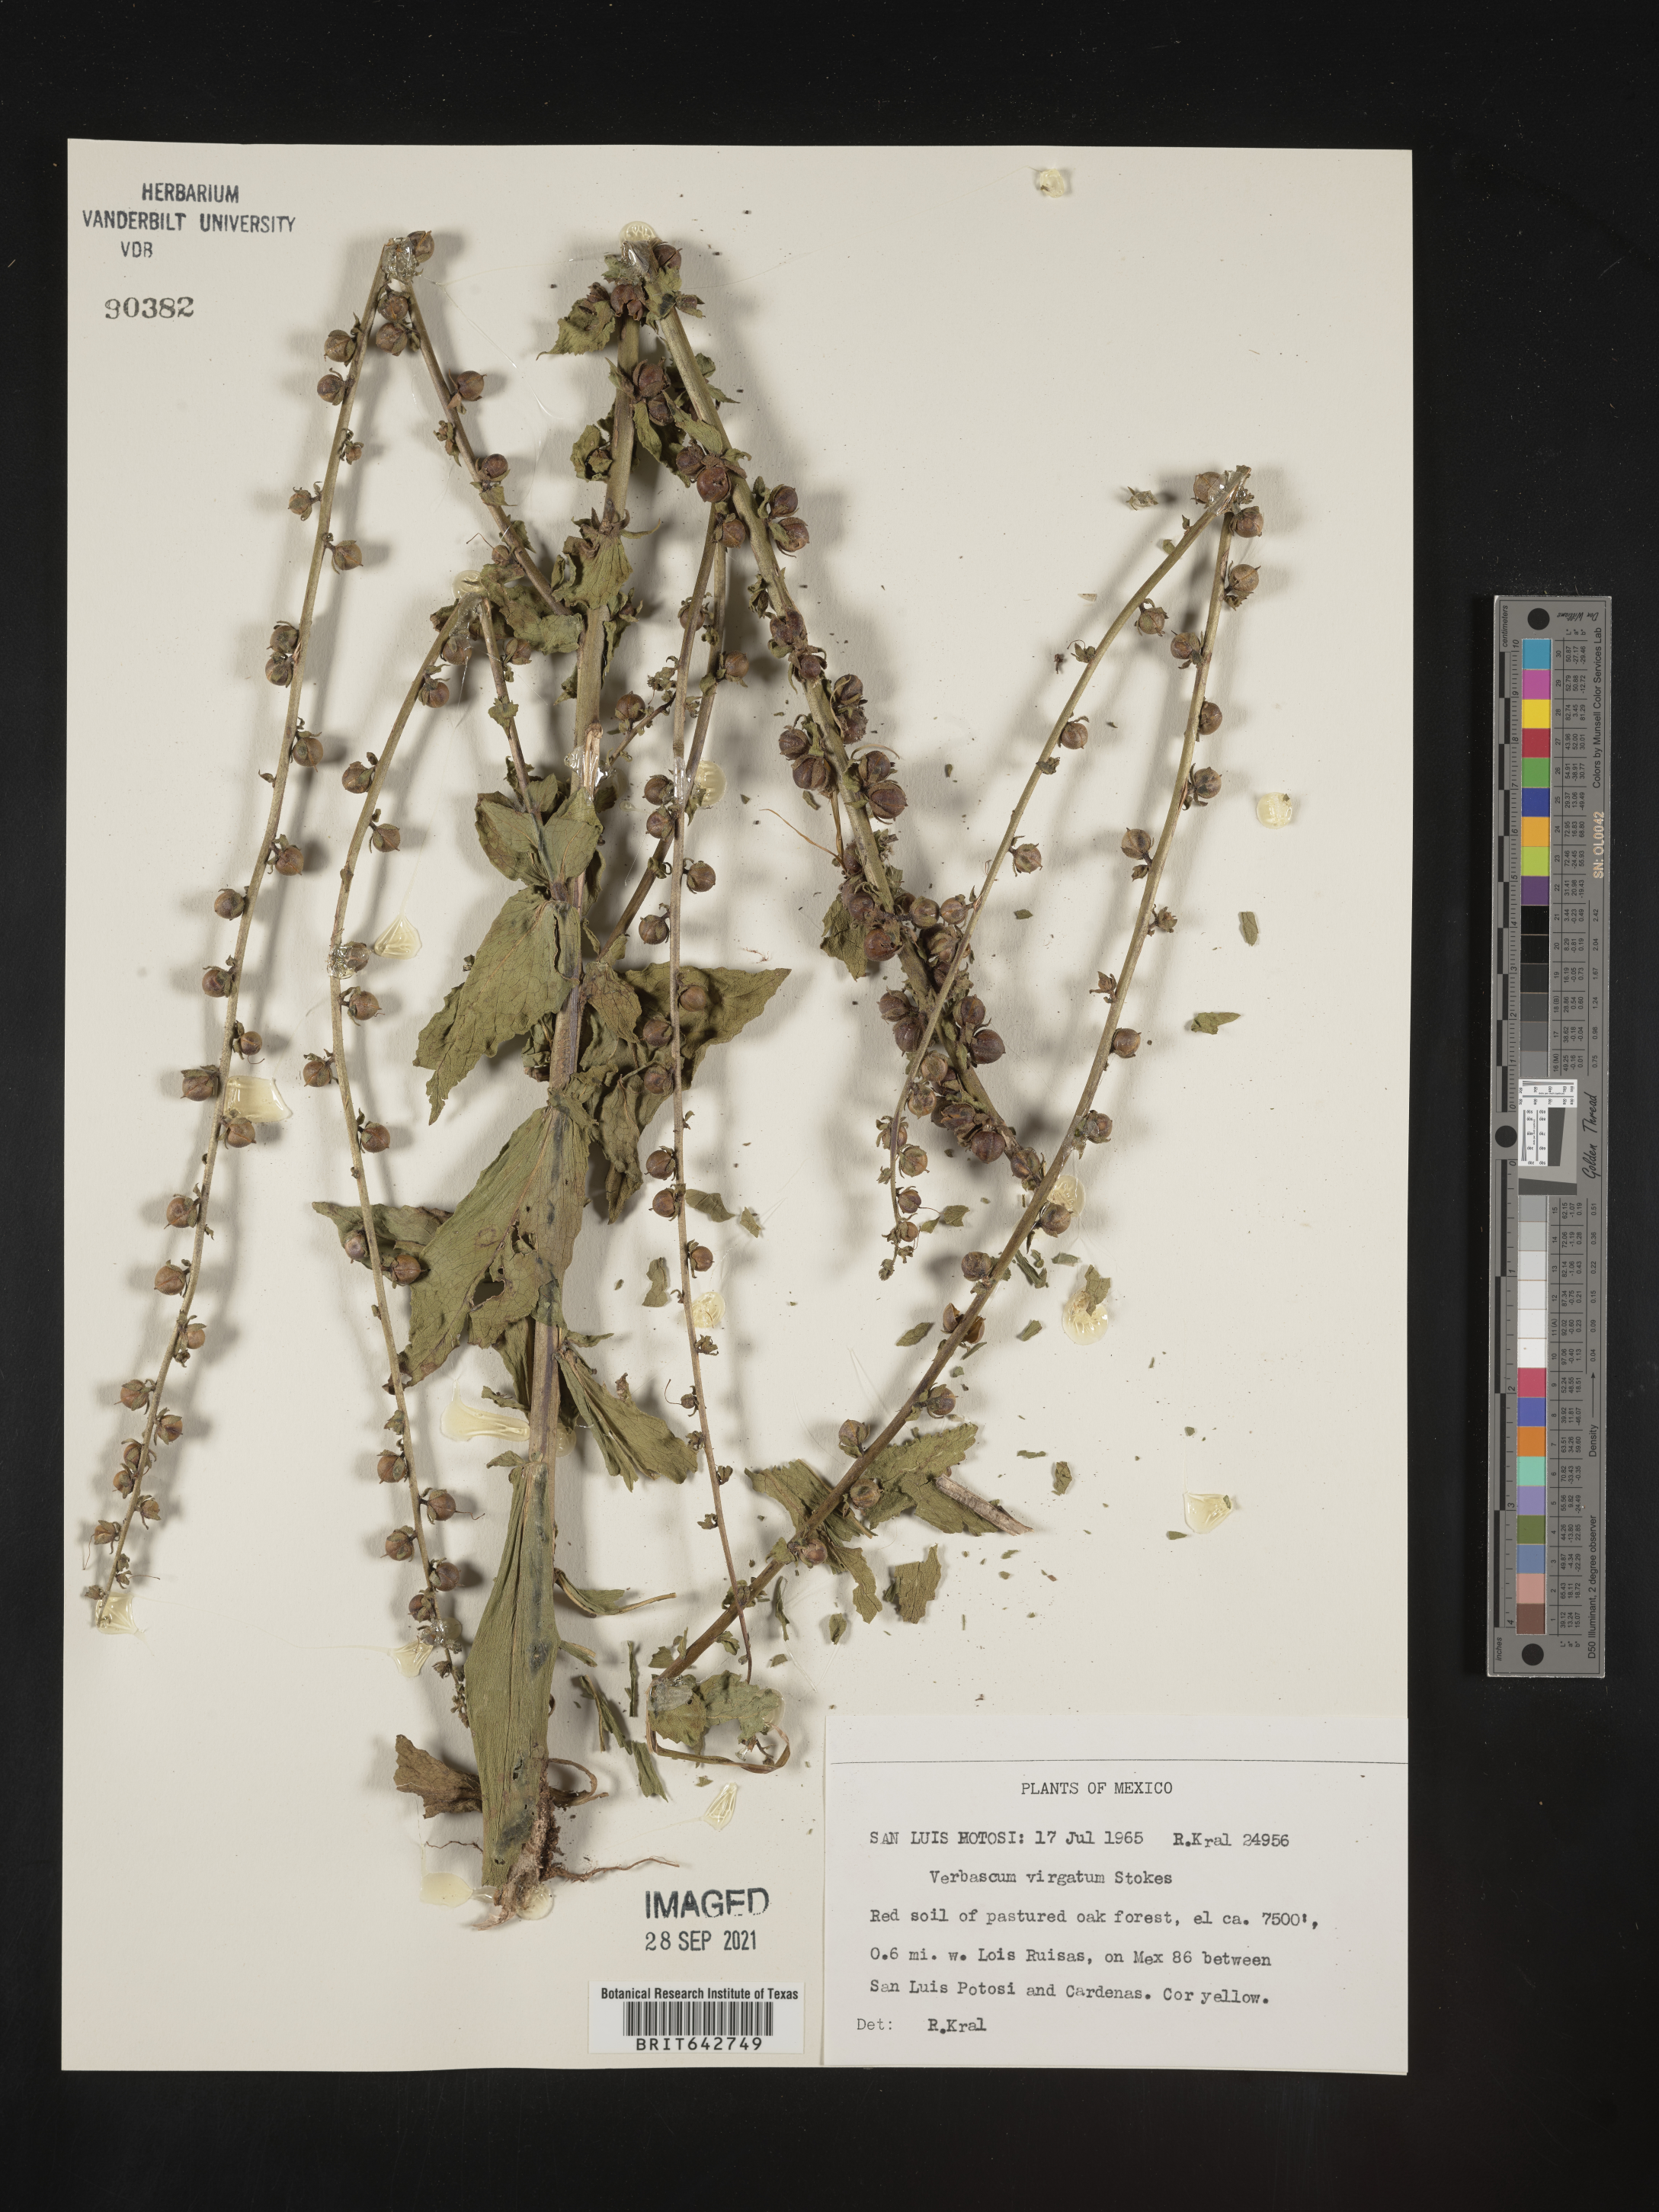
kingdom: Plantae
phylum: Tracheophyta
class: Magnoliopsida
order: Lamiales
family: Scrophulariaceae
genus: Verbascum
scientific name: Verbascum
